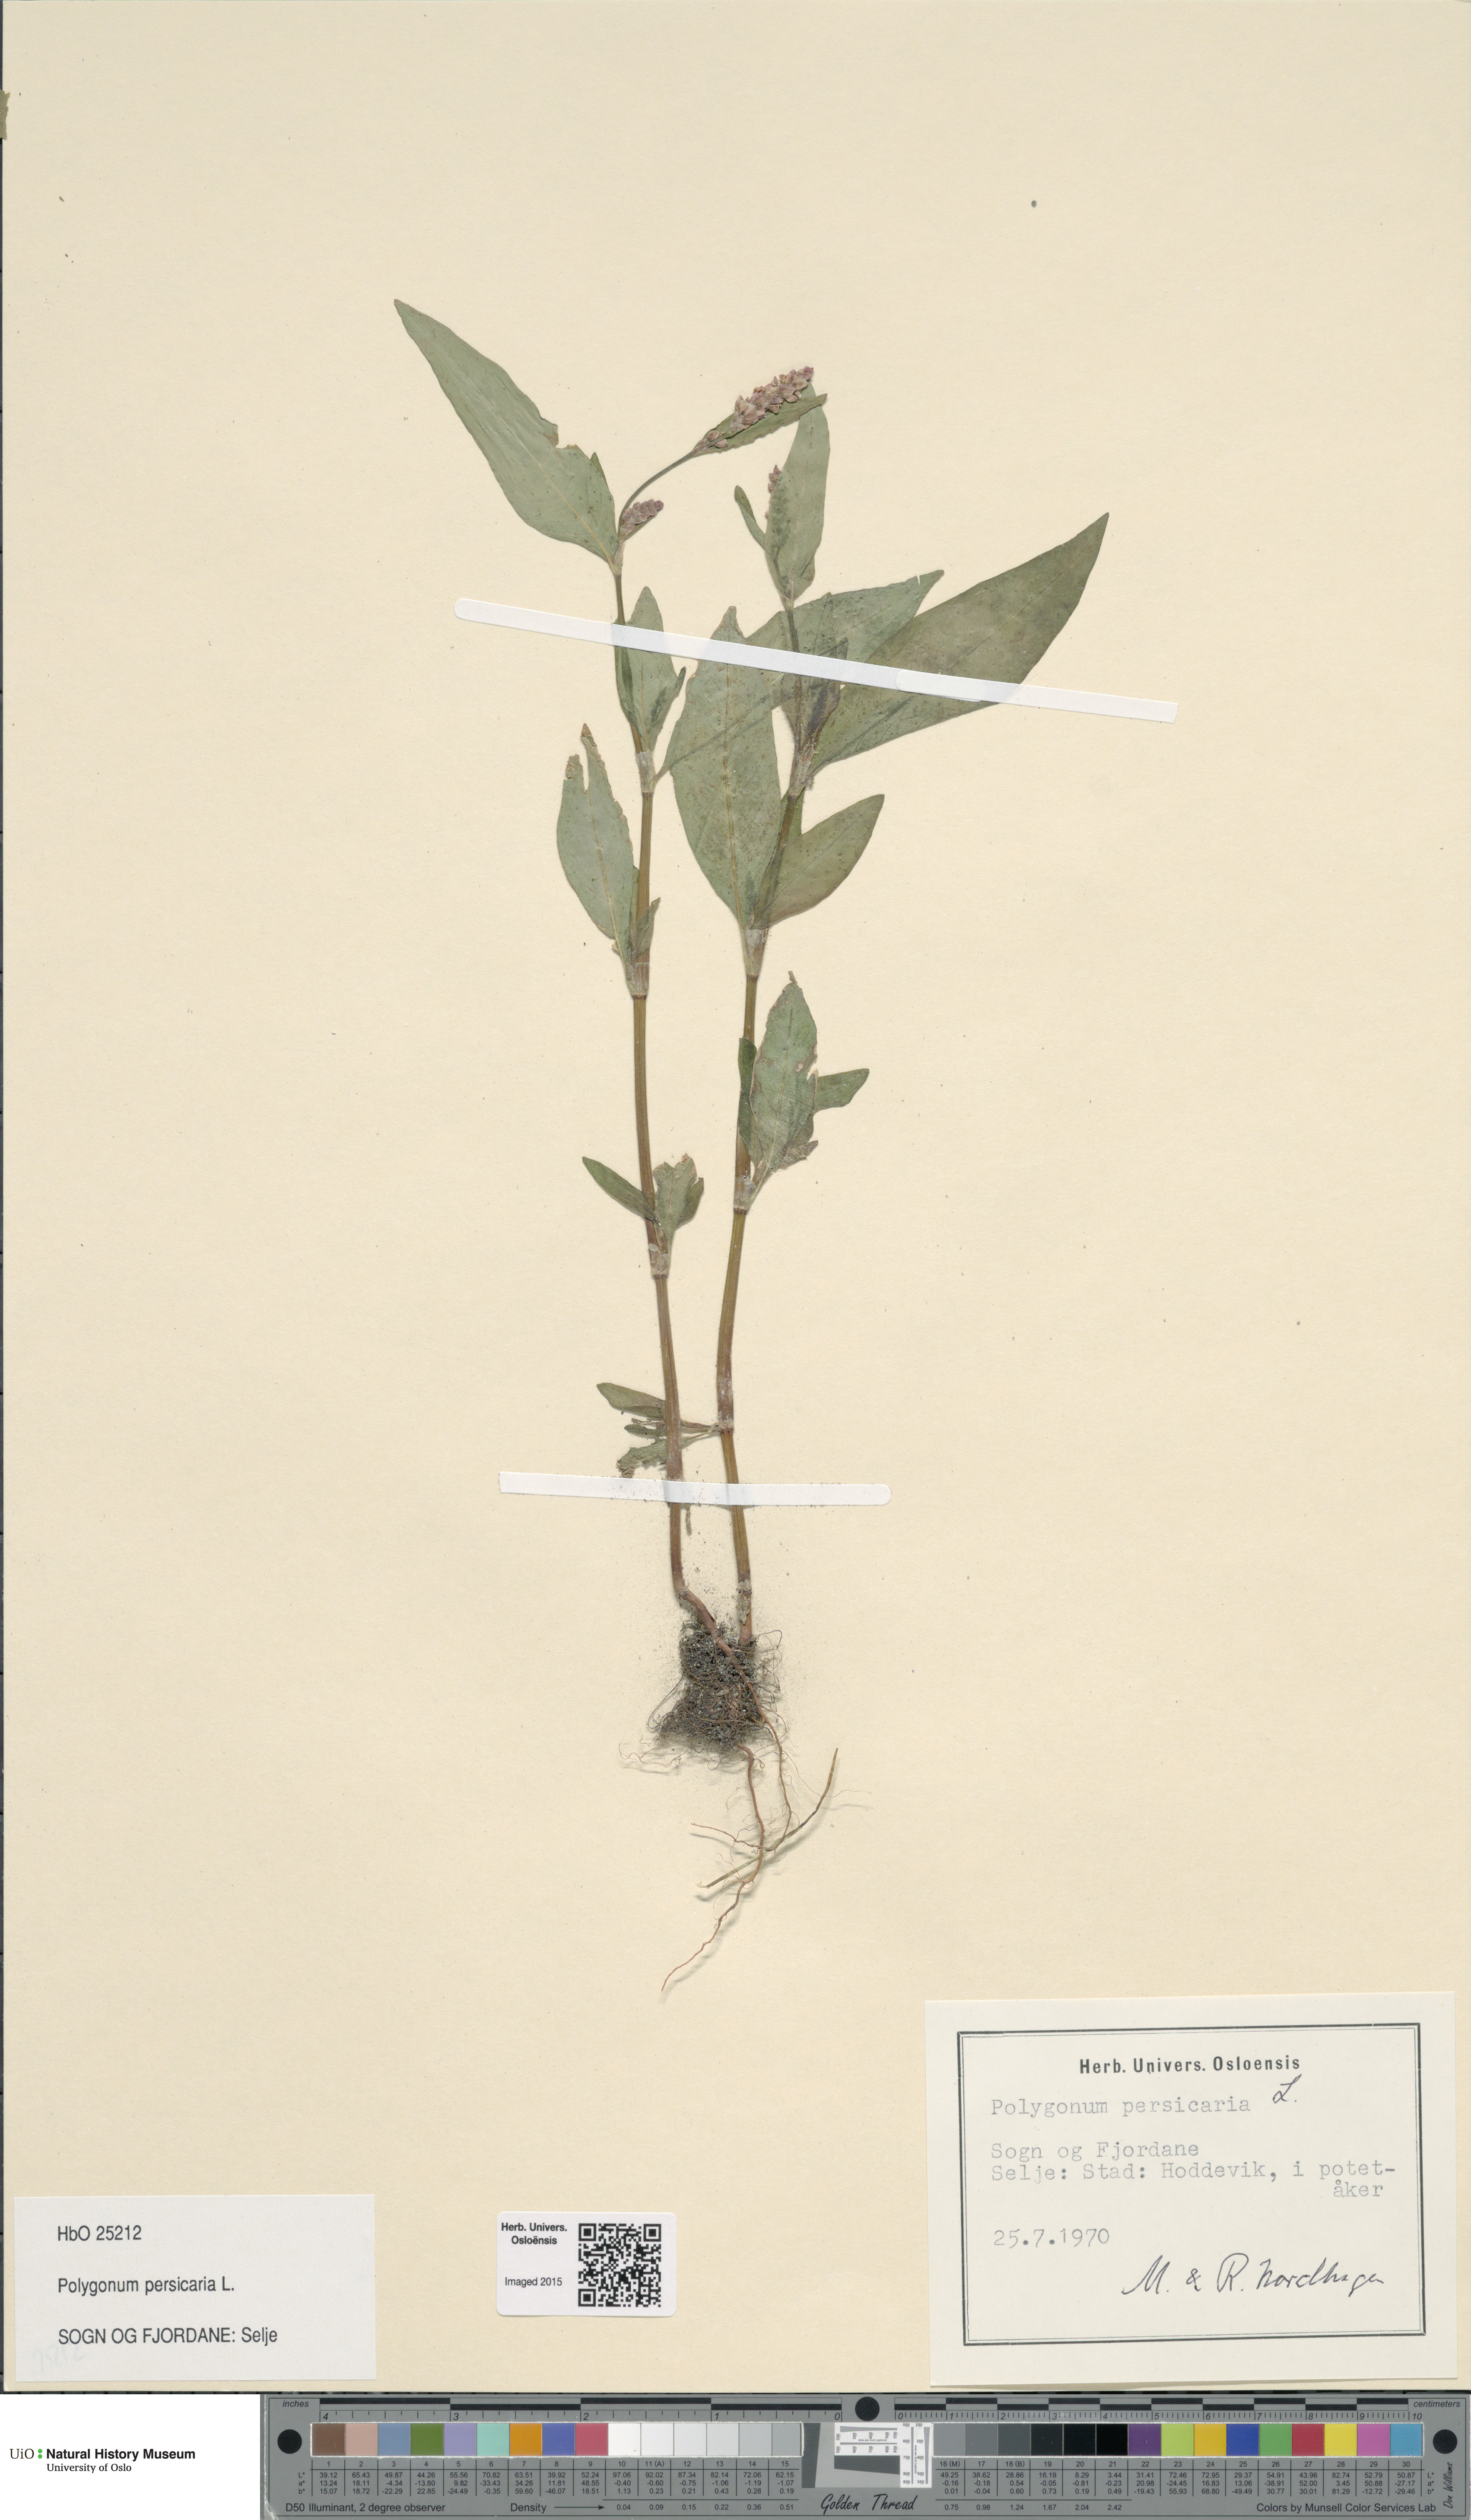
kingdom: Plantae
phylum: Tracheophyta
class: Magnoliopsida
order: Caryophyllales
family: Polygonaceae
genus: Persicaria
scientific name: Persicaria maculosa
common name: Redshank
